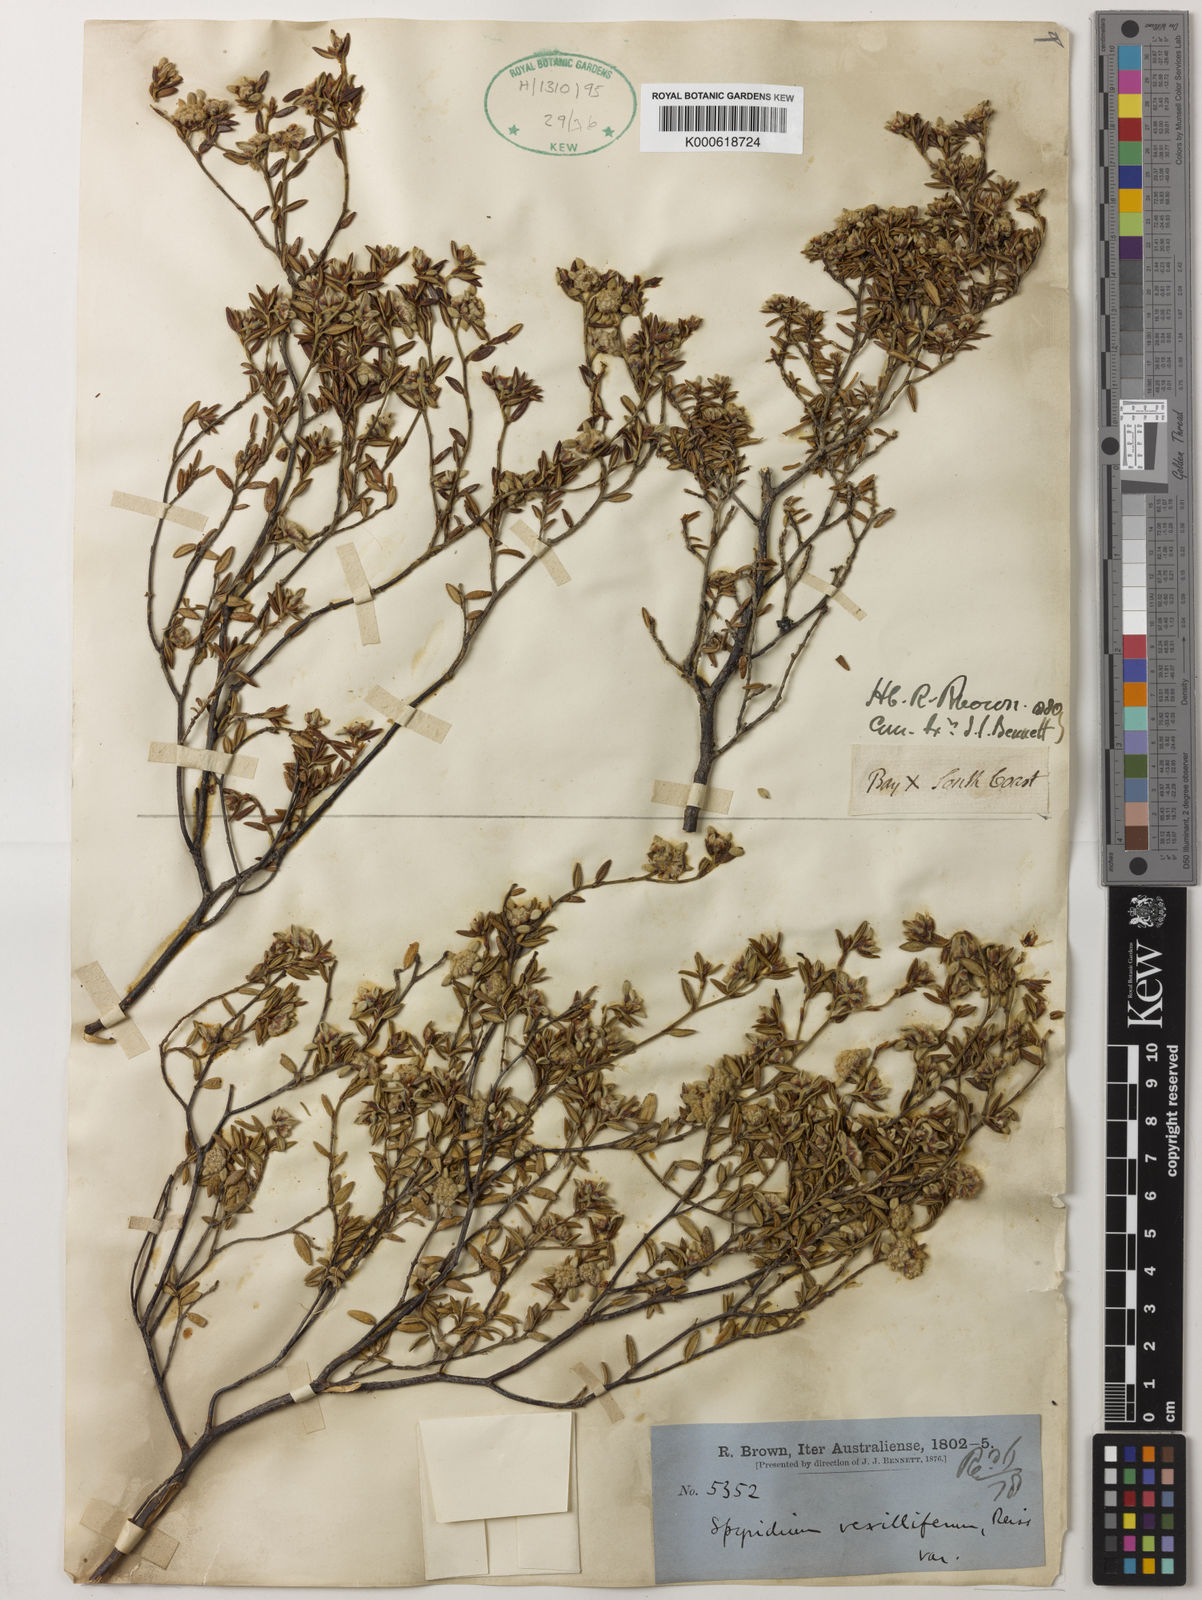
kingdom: Plantae
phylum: Tracheophyta
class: Magnoliopsida
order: Rosales
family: Rhamnaceae
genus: Spyridium
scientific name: Spyridium vexilliferum
